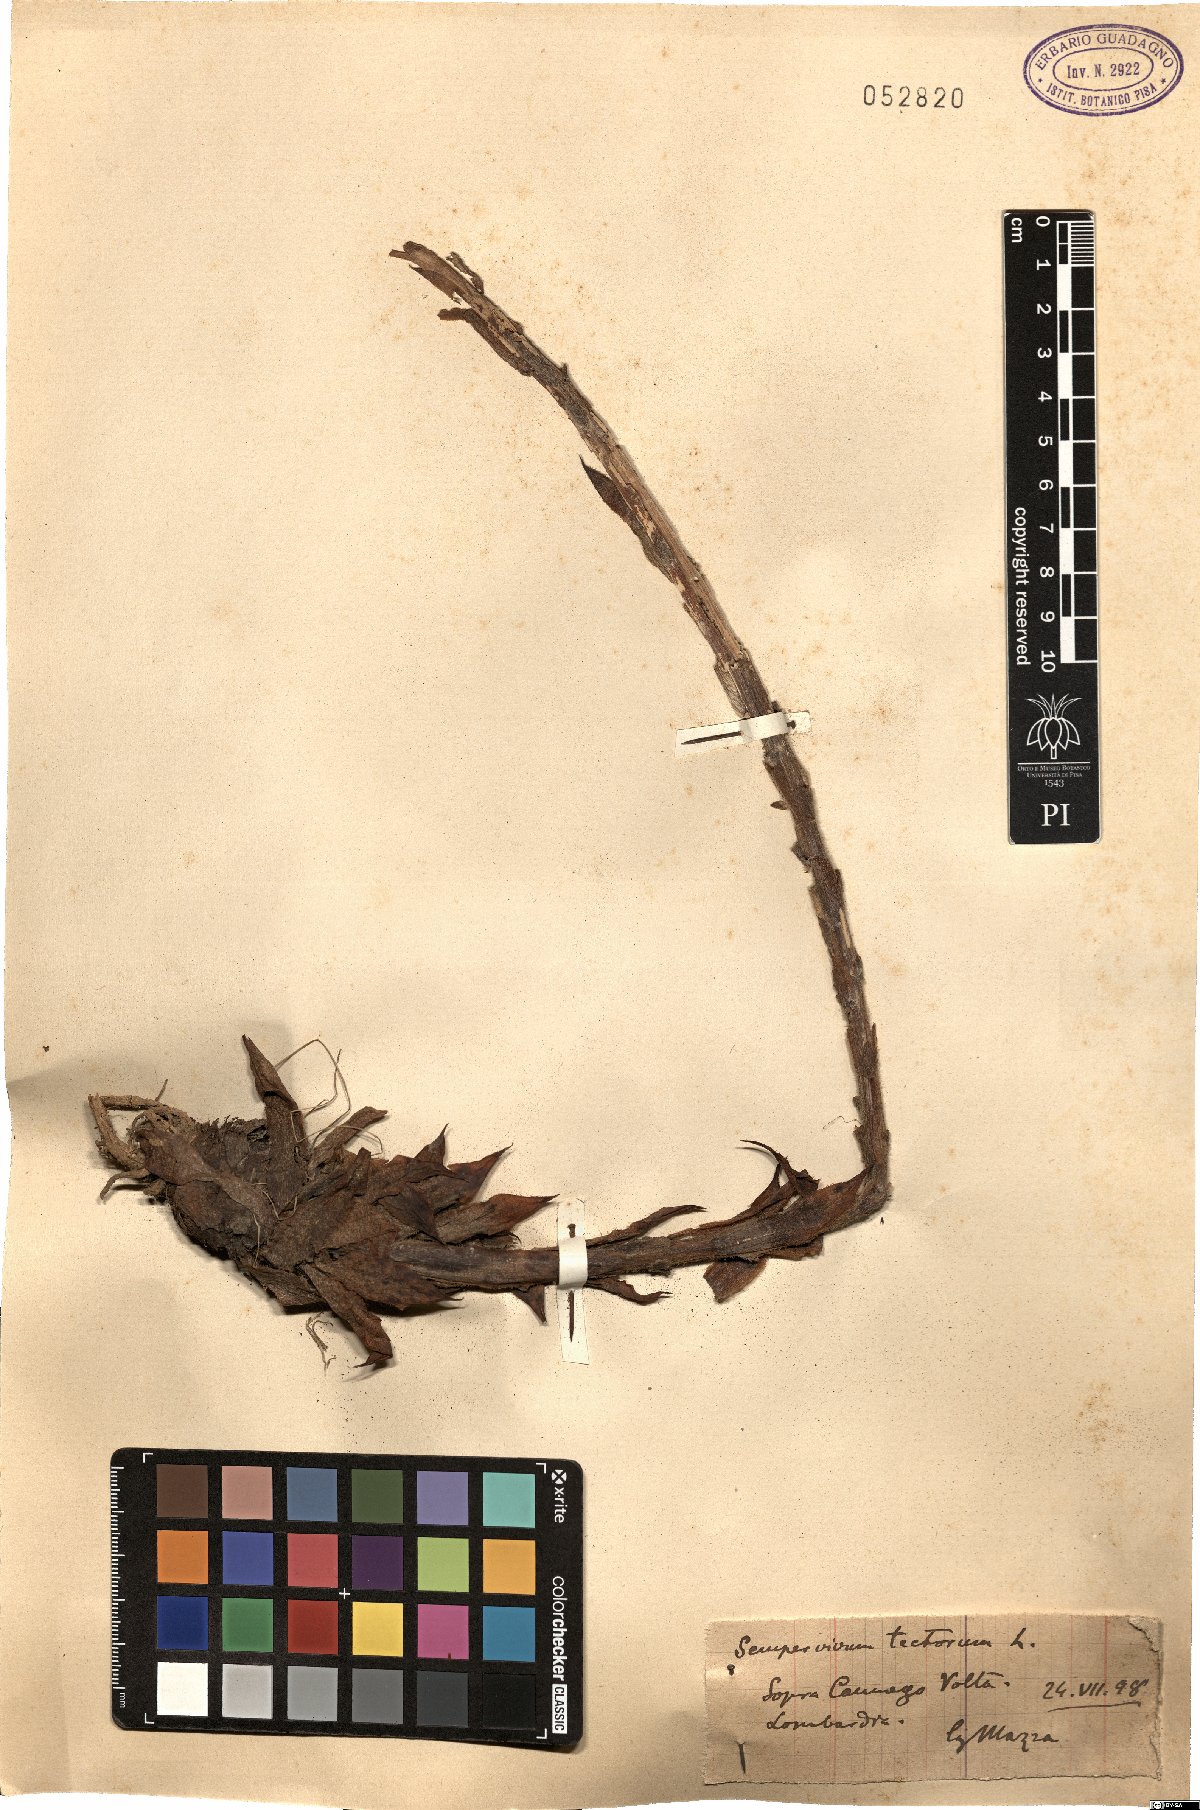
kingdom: Plantae
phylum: Tracheophyta
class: Magnoliopsida
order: Saxifragales
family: Crassulaceae
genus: Sempervivum
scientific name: Sempervivum tectorum
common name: House-leek
